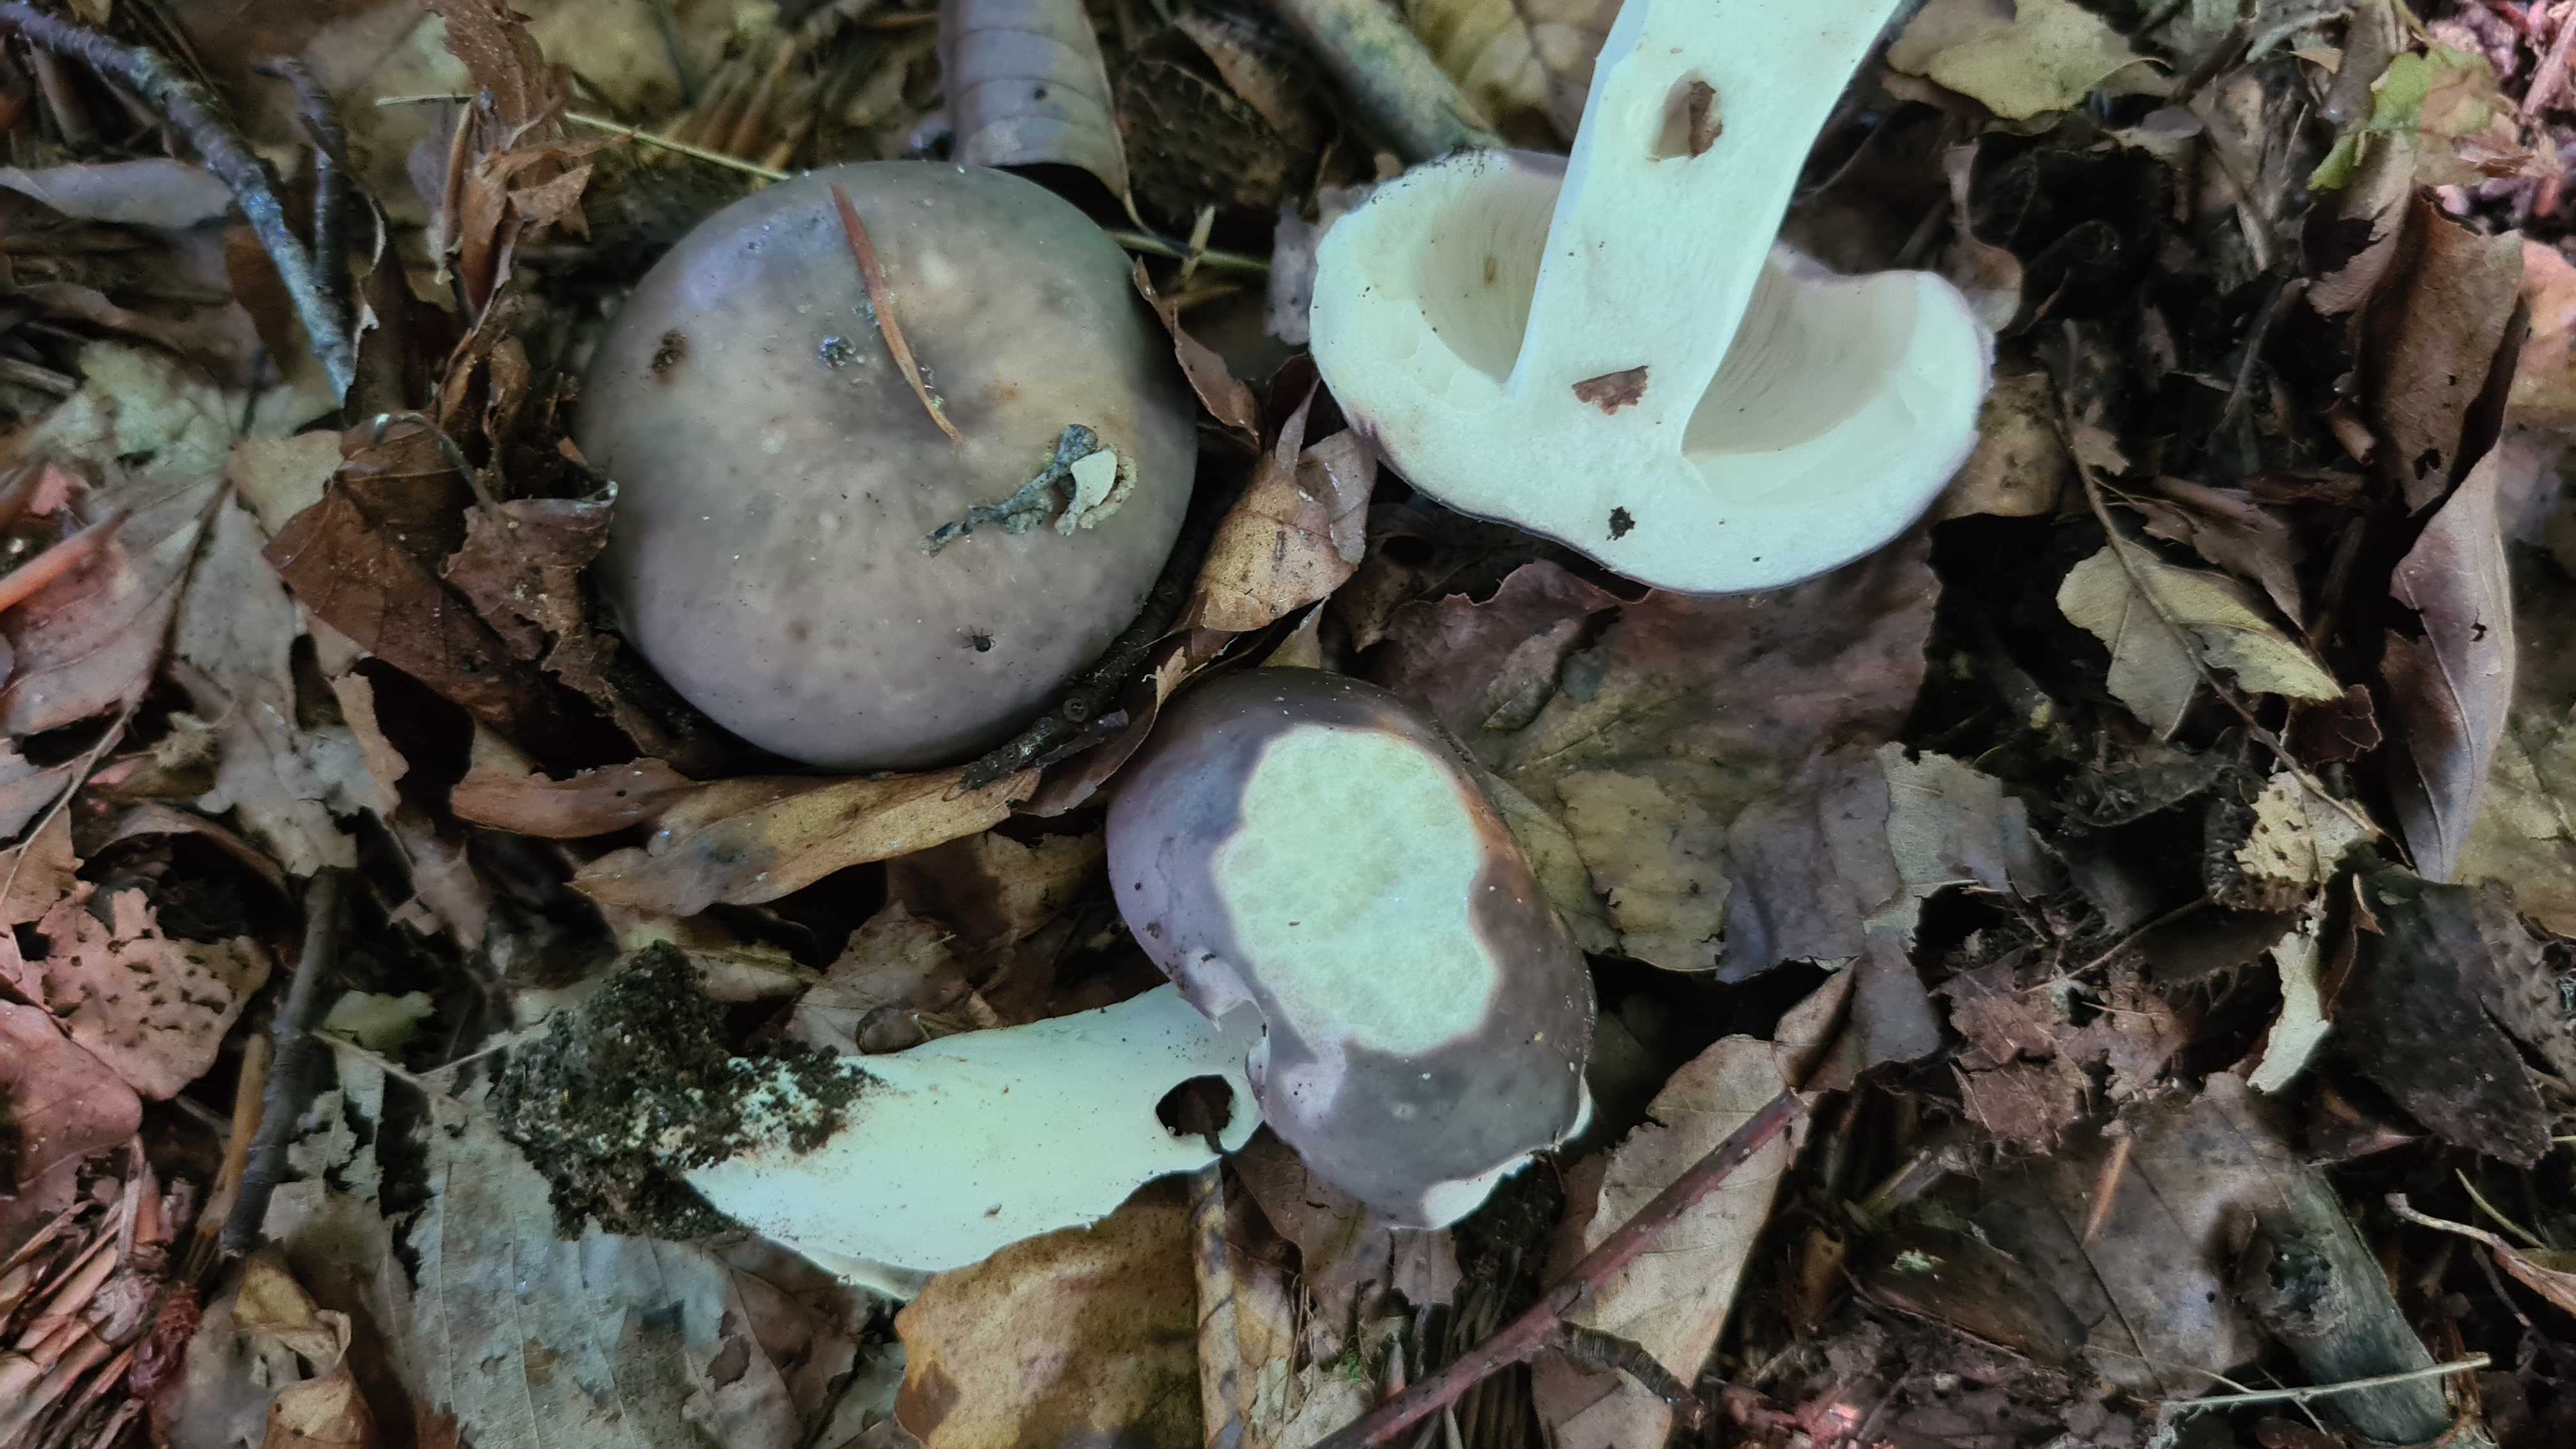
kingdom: Fungi
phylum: Basidiomycota
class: Agaricomycetes
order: Russulales
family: Russulaceae
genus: Russula
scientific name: Russula cyanoxantha
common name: broget skørhat
